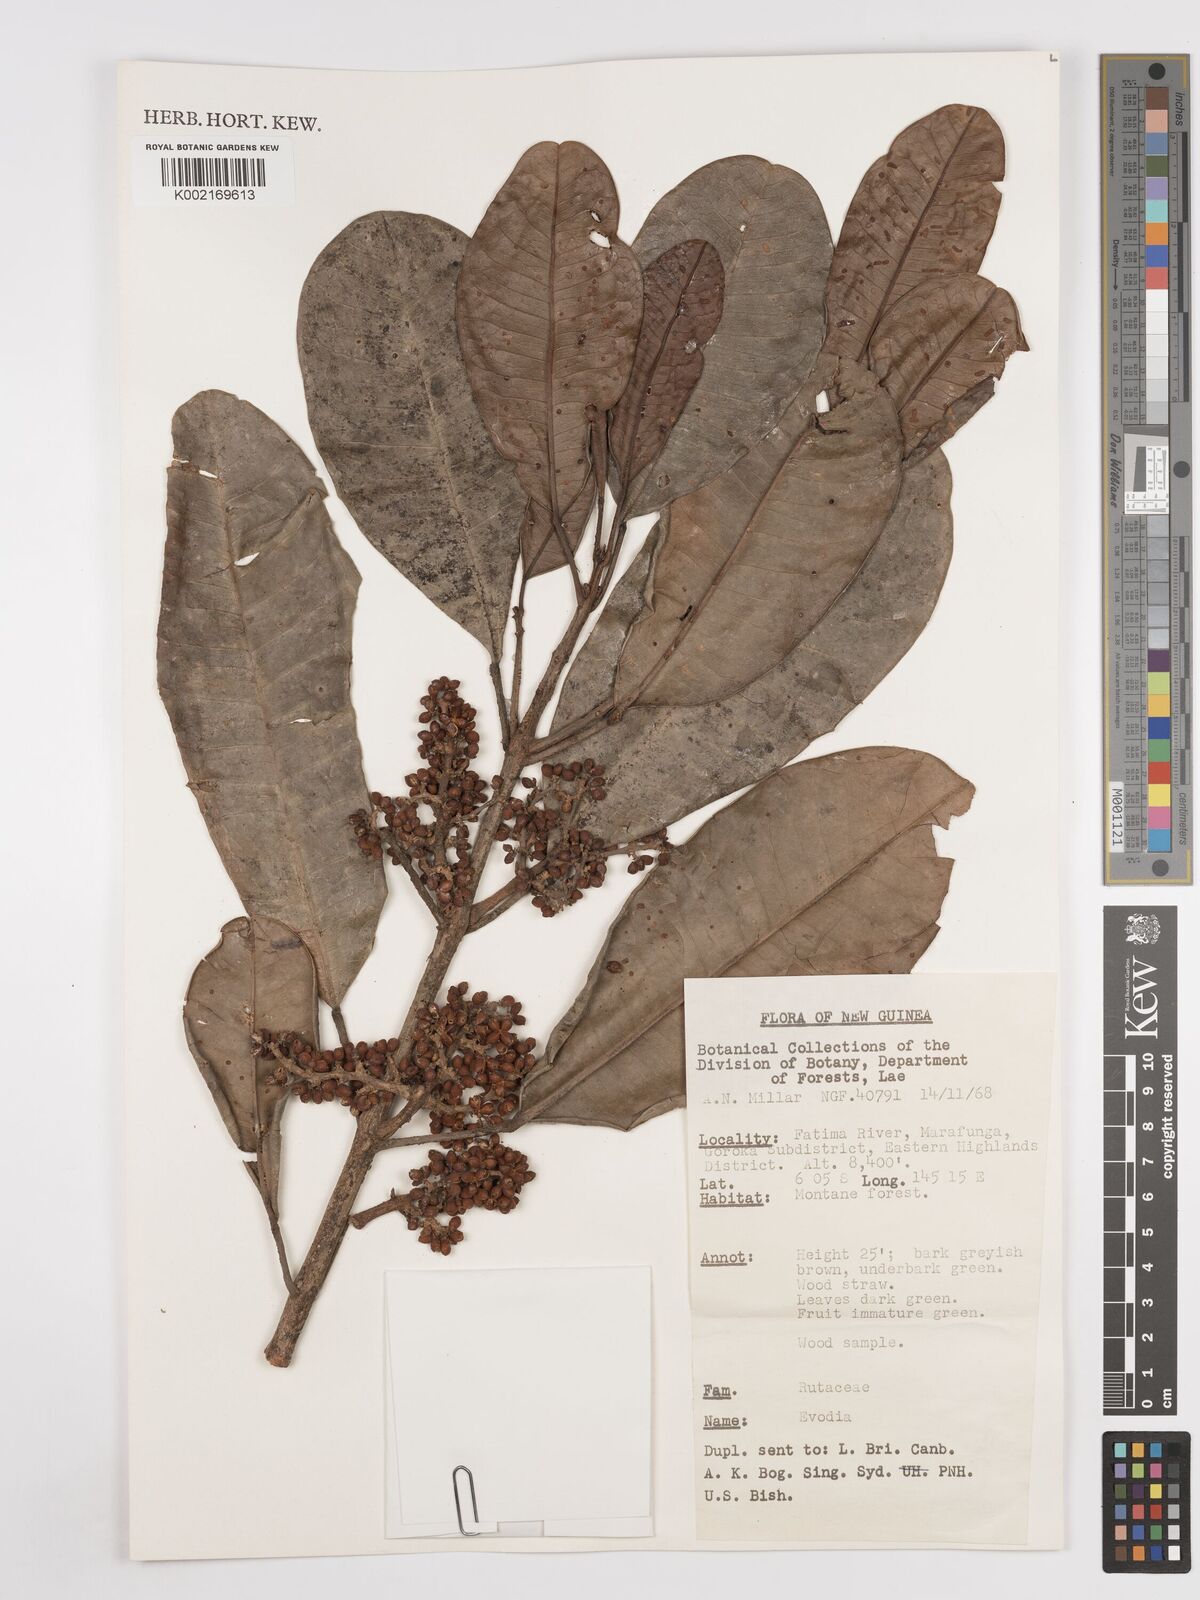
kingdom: Plantae
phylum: Tracheophyta
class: Magnoliopsida
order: Sapindales
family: Rutaceae
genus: Euodia
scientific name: Euodia
